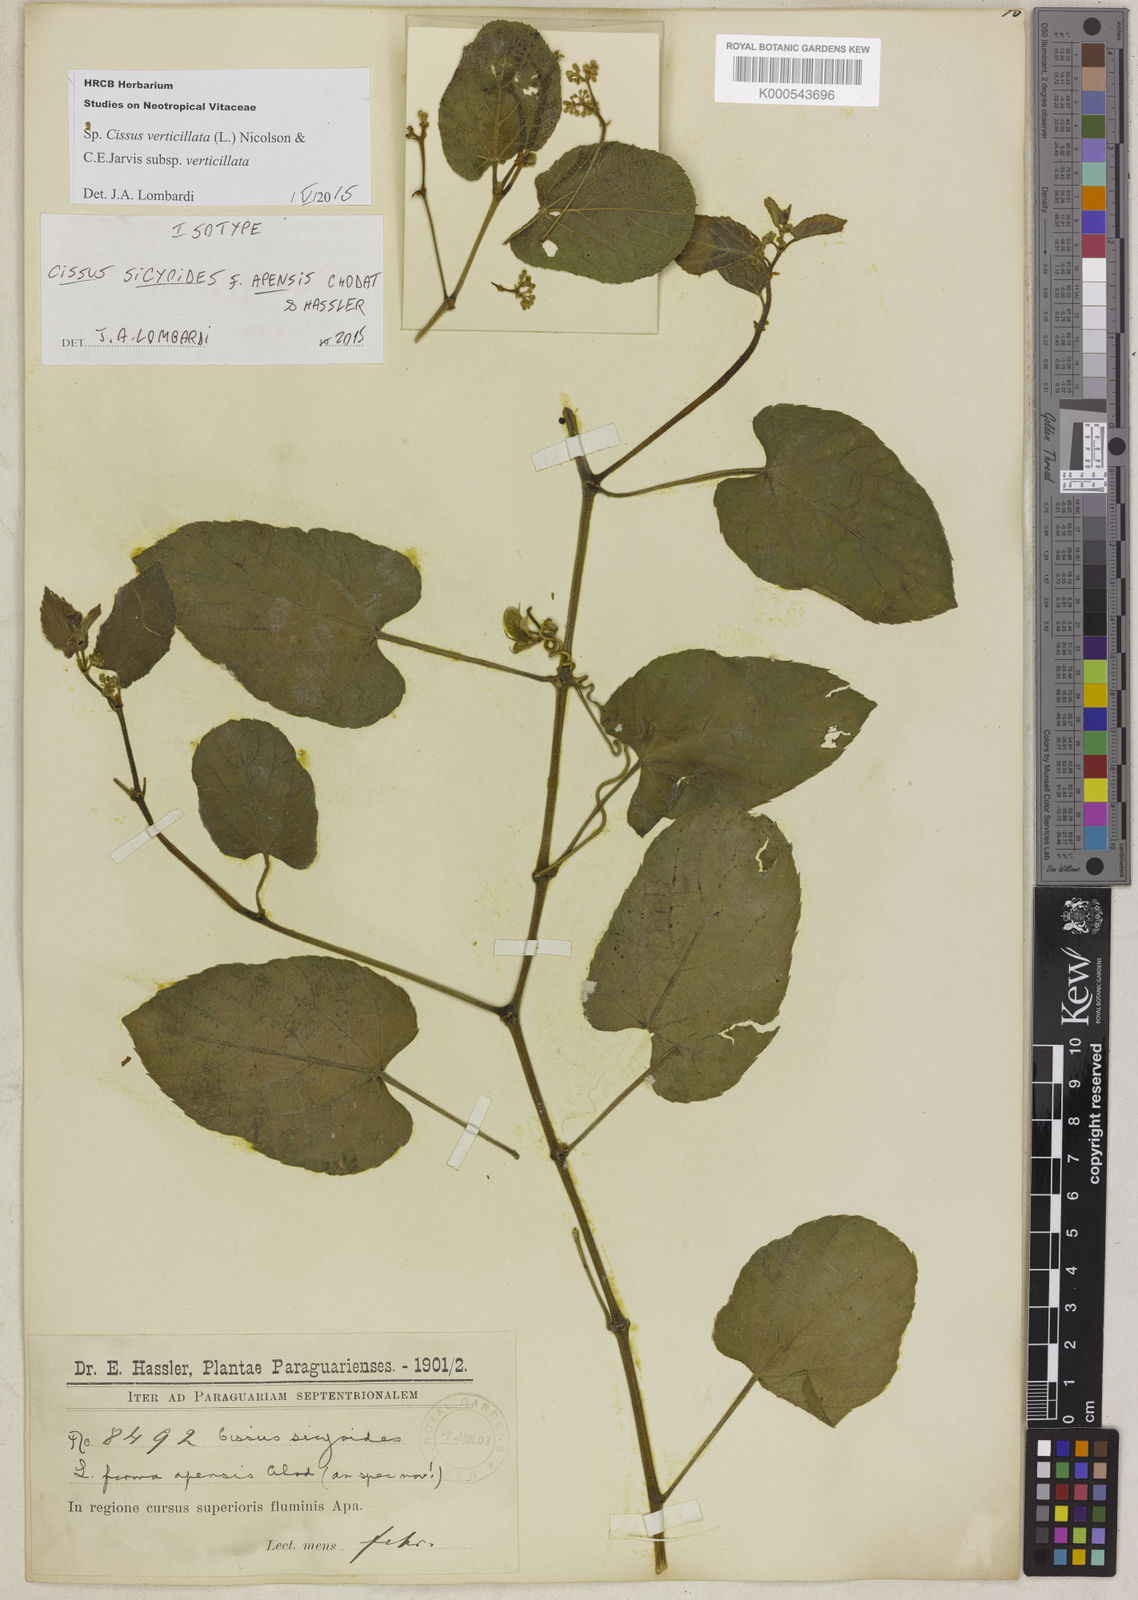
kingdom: Plantae
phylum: Tracheophyta
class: Magnoliopsida
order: Vitales
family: Vitaceae
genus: Cissus
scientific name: Cissus verticillata
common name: Princess vine
